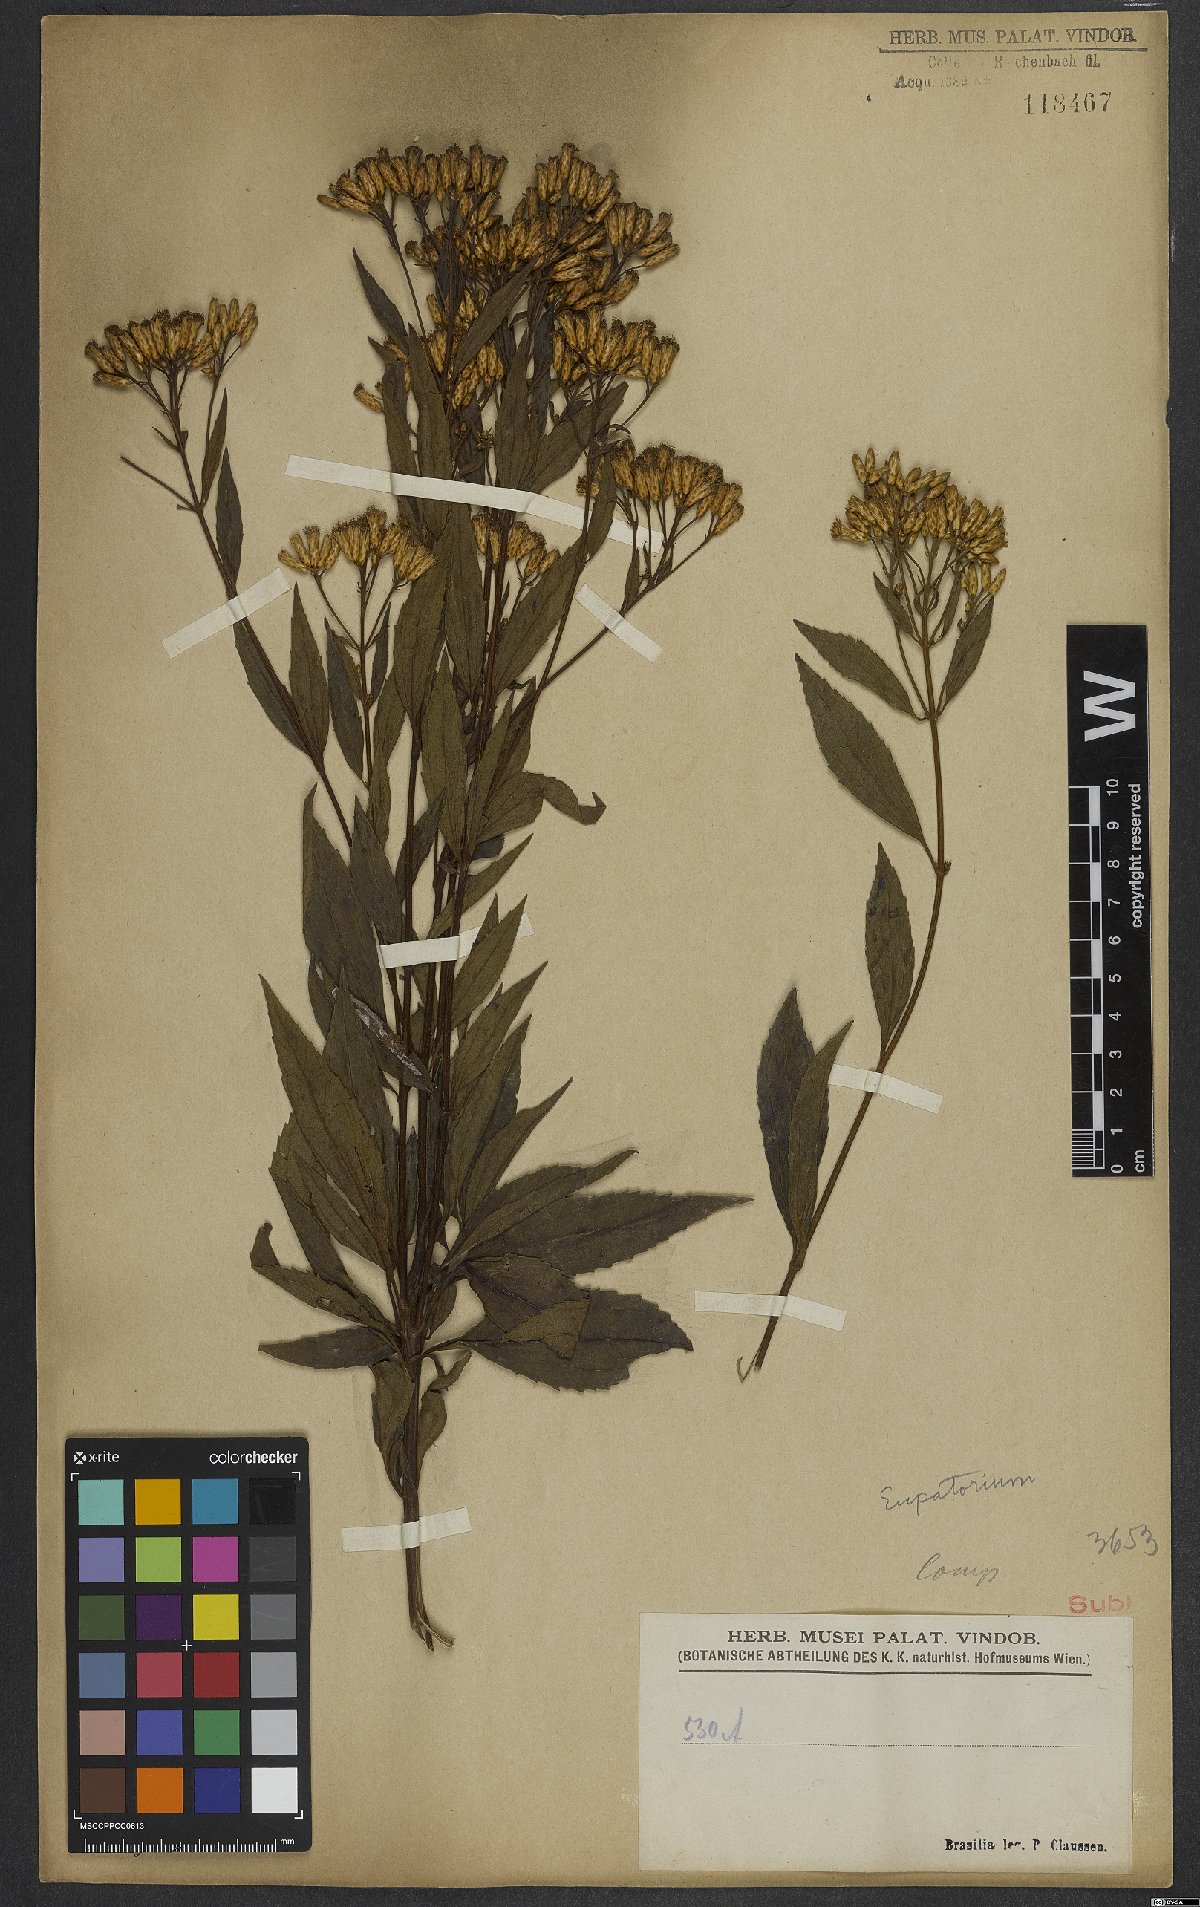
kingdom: Plantae
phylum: Tracheophyta
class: Magnoliopsida
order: Asterales
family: Asteraceae
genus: Eupatorium
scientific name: Eupatorium
